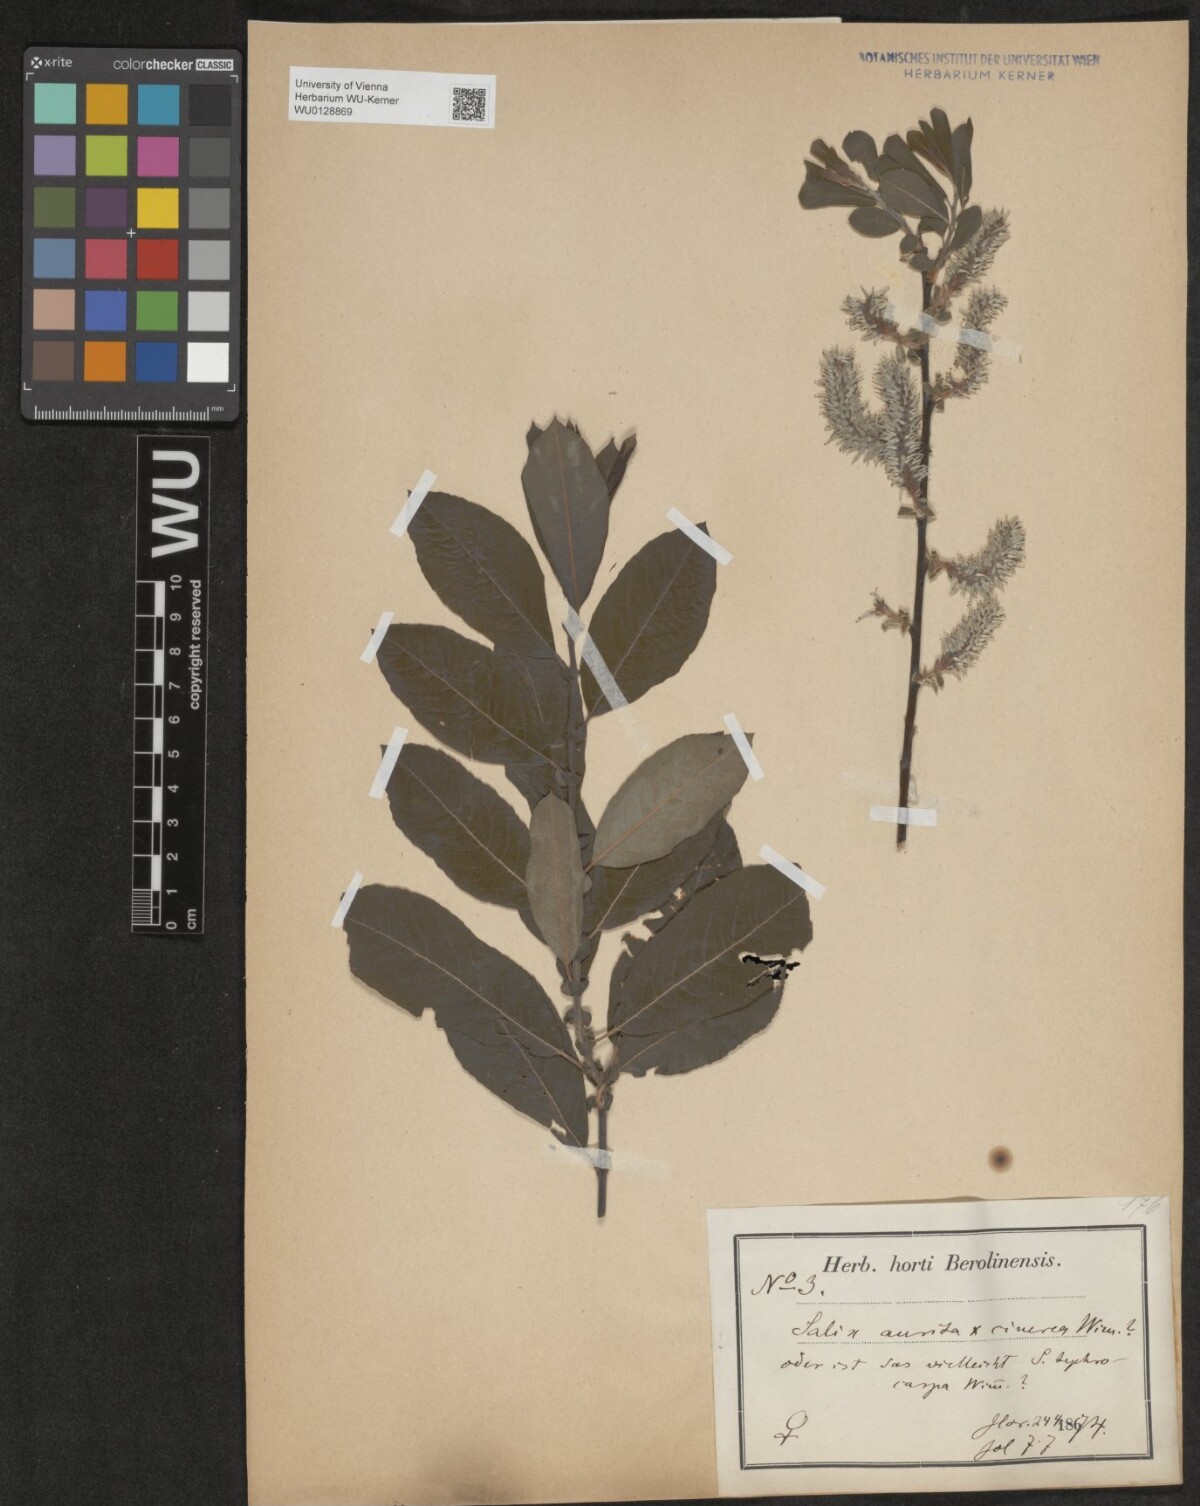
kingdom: Plantae
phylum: Tracheophyta
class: Magnoliopsida
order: Malpighiales
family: Salicaceae
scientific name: Salicaceae
